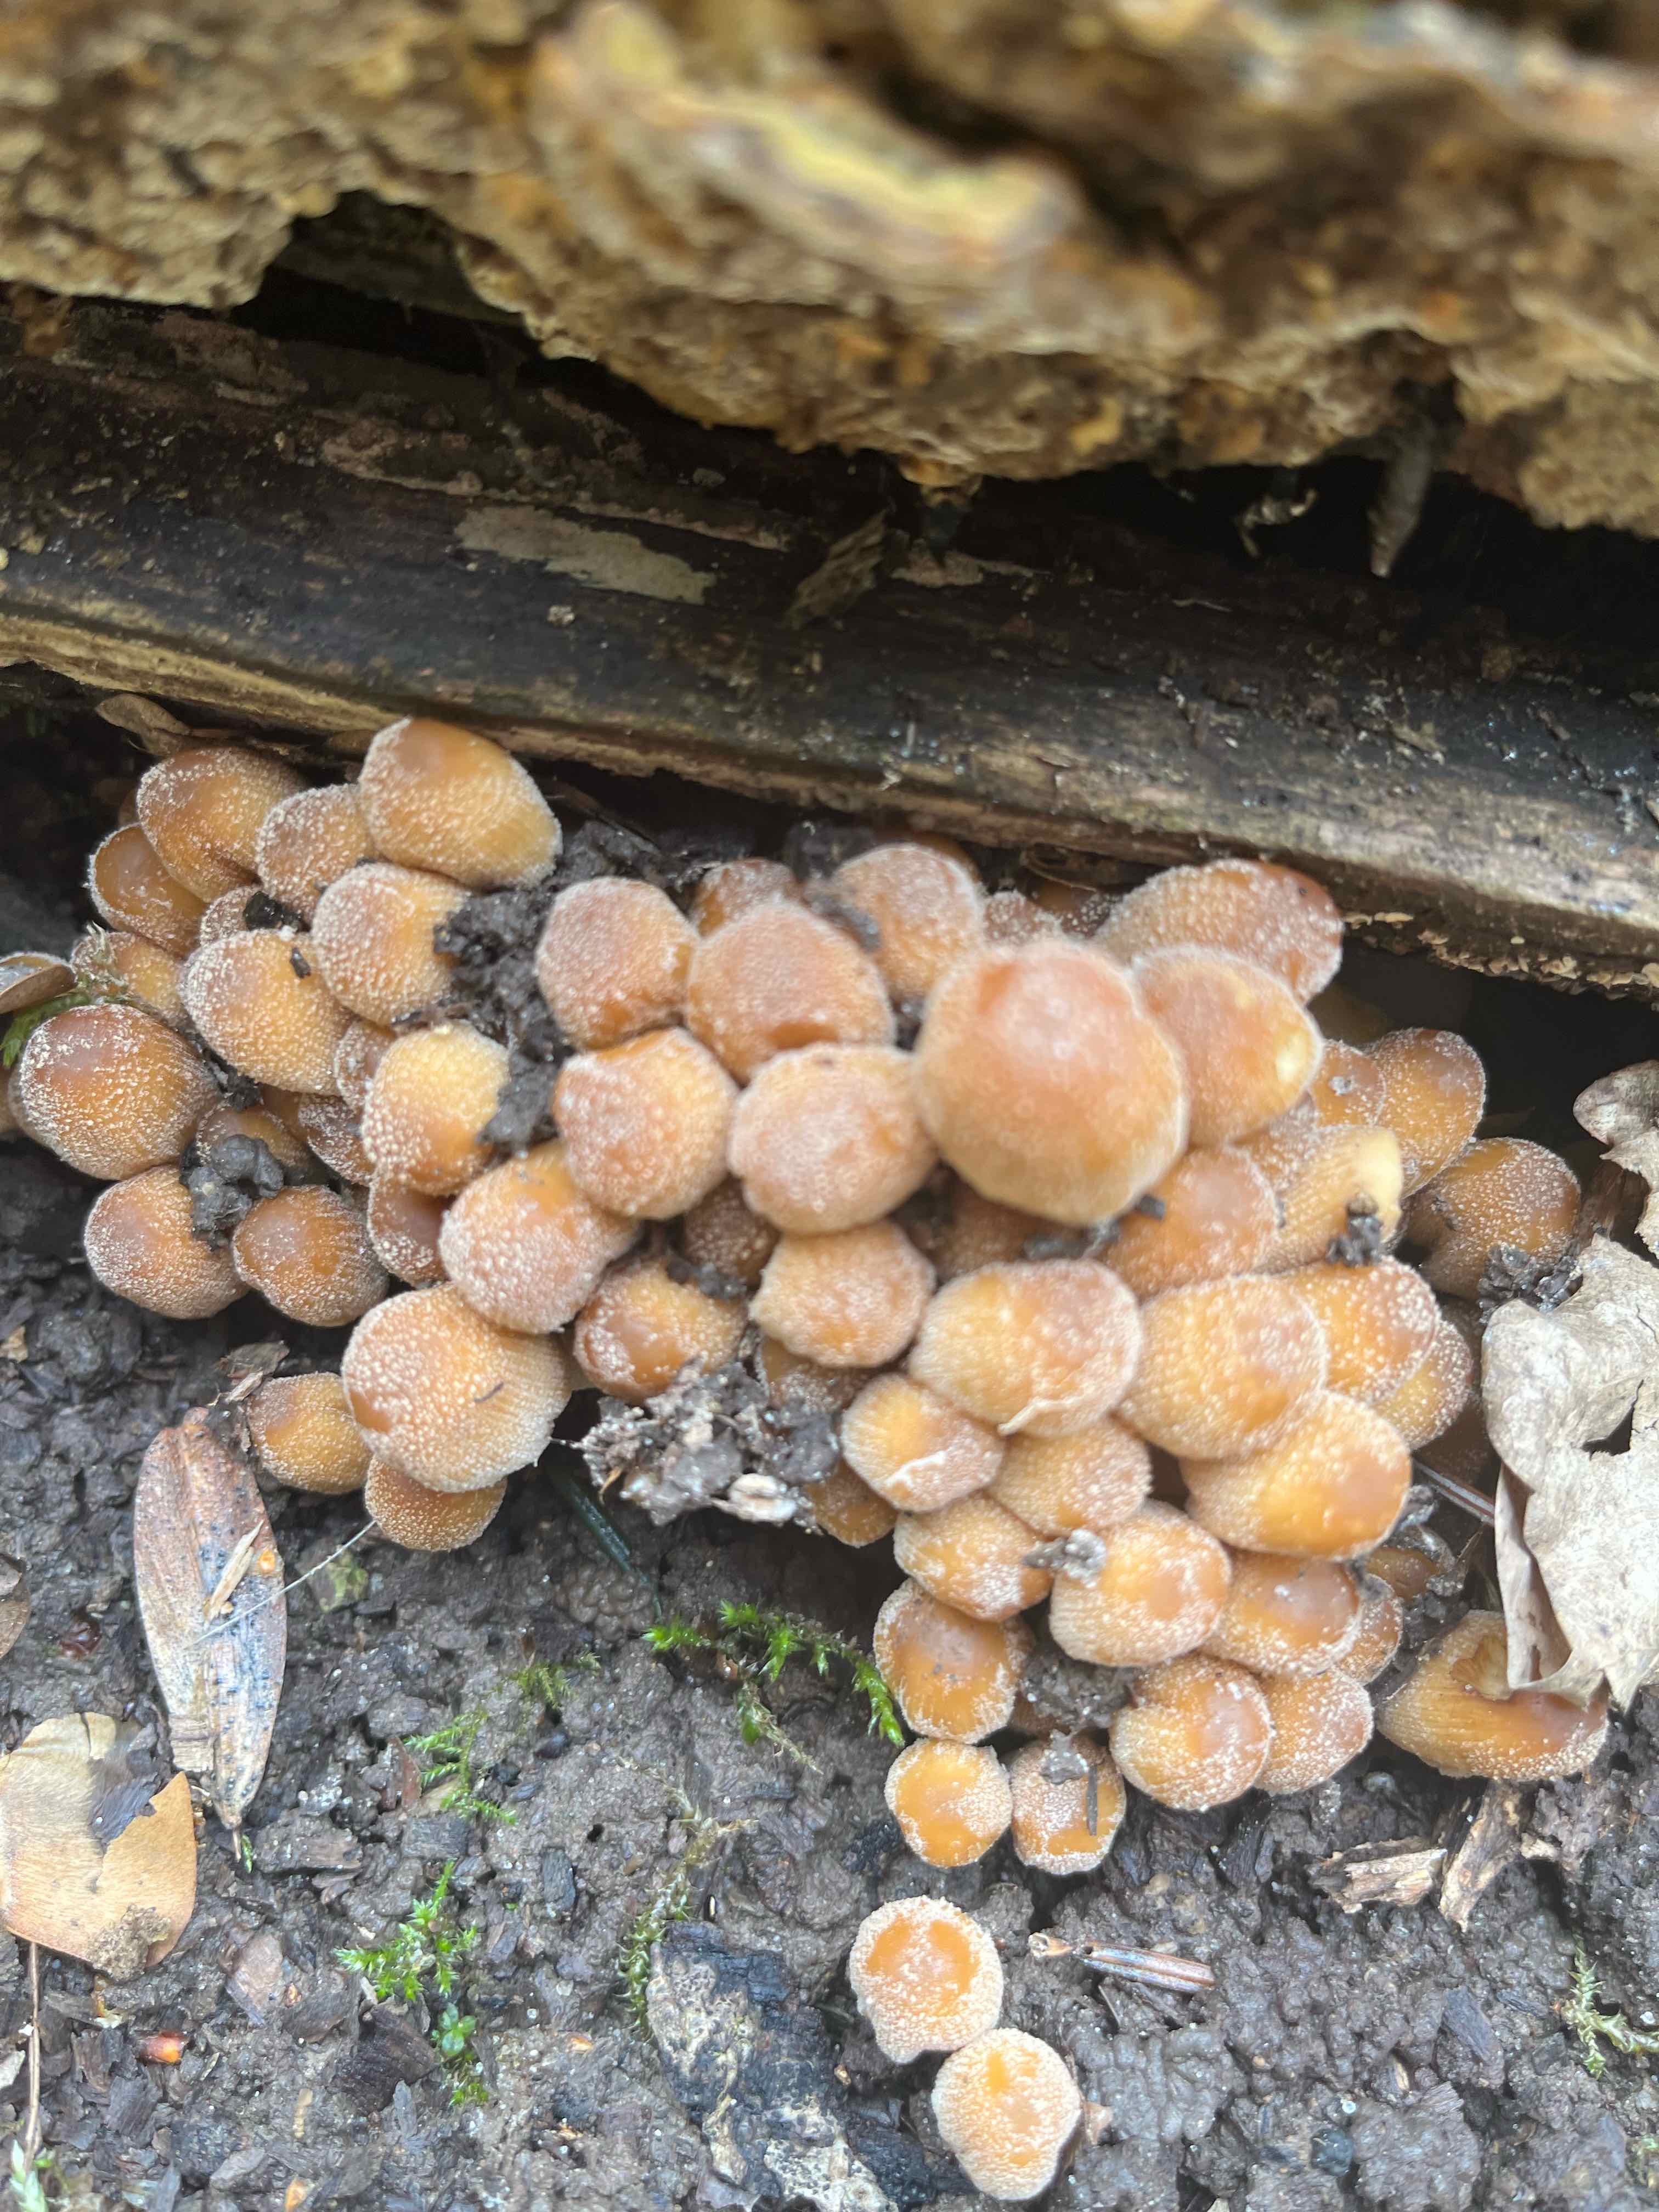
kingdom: Fungi
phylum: Basidiomycota
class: Agaricomycetes
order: Agaricales
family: Psathyrellaceae
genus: Coprinellus
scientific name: Coprinellus micaceus
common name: glimmer-blækhat
